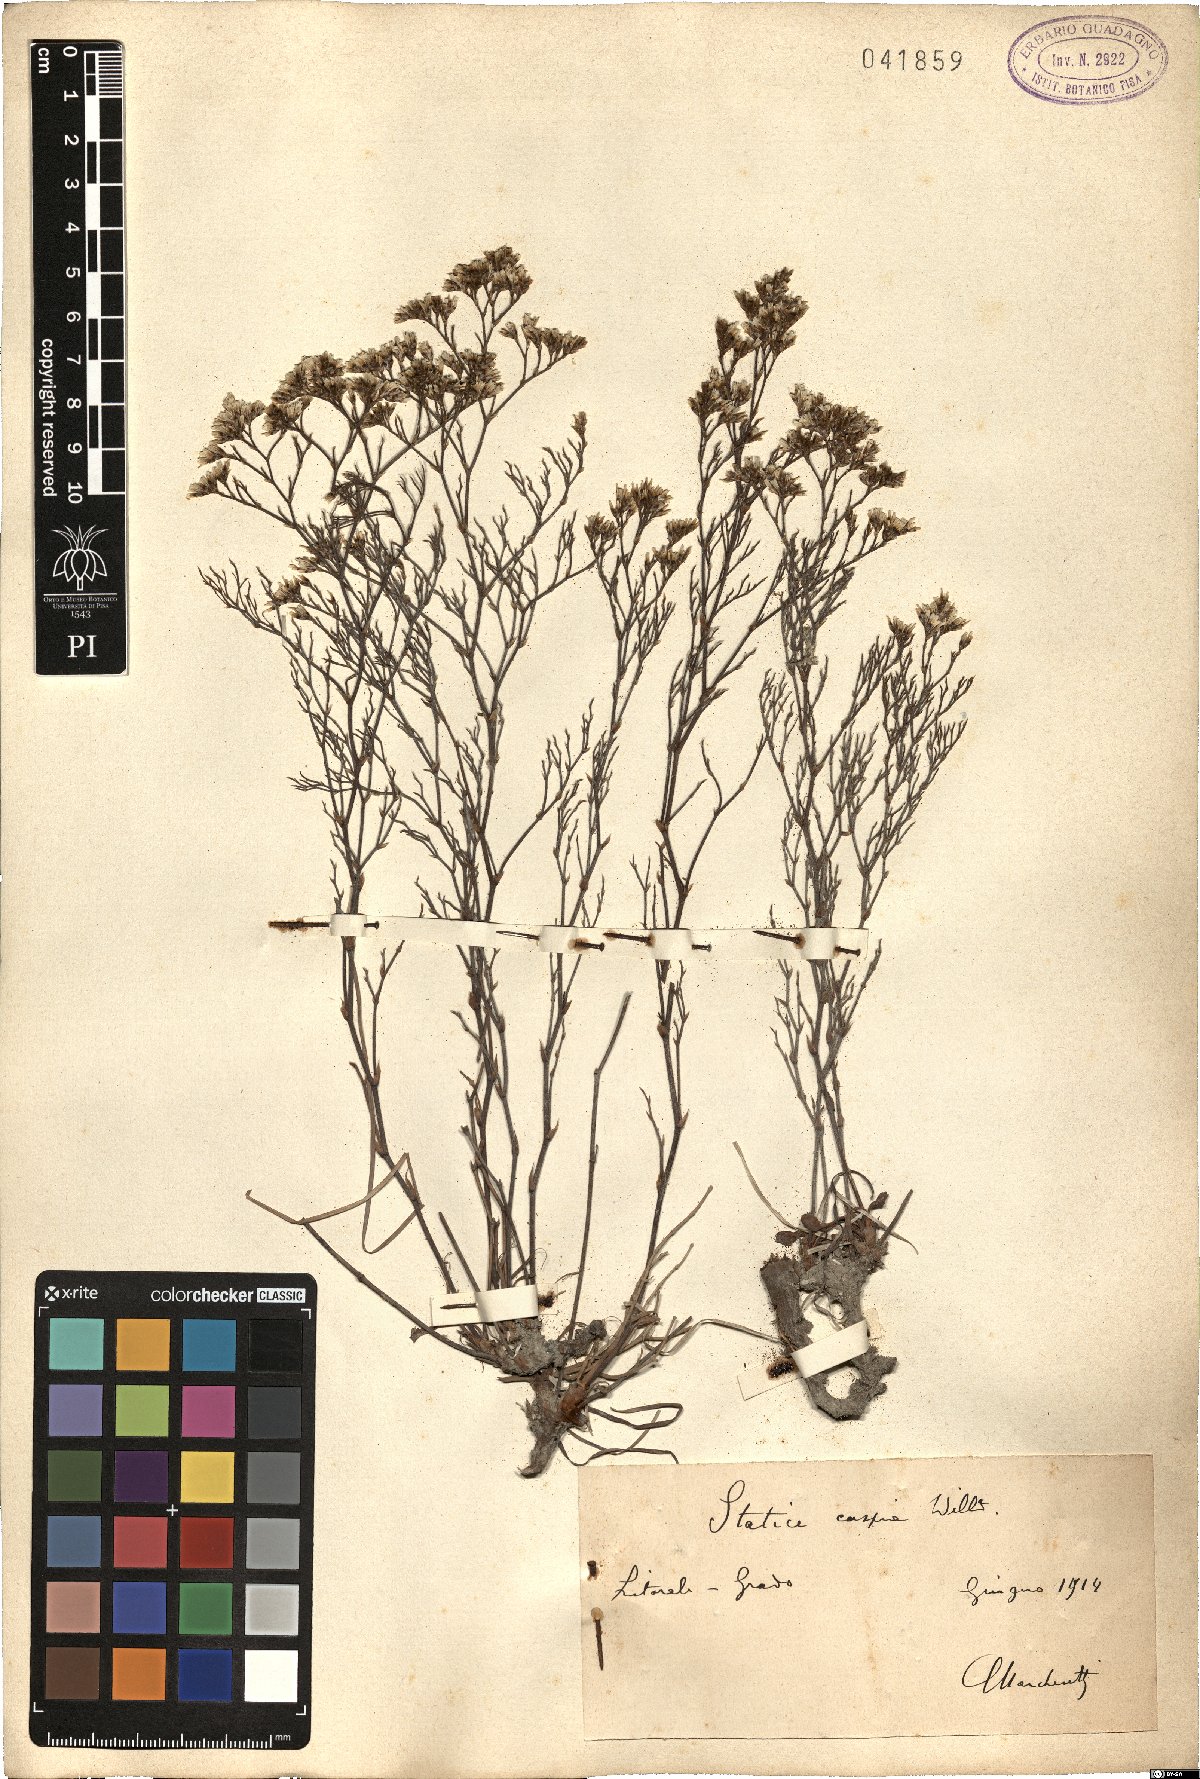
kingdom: Plantae
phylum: Tracheophyta
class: Magnoliopsida
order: Caryophyllales
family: Plumbaginaceae
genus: Limonium
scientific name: Limonium bellidifolium
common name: Matted sea-lavender
